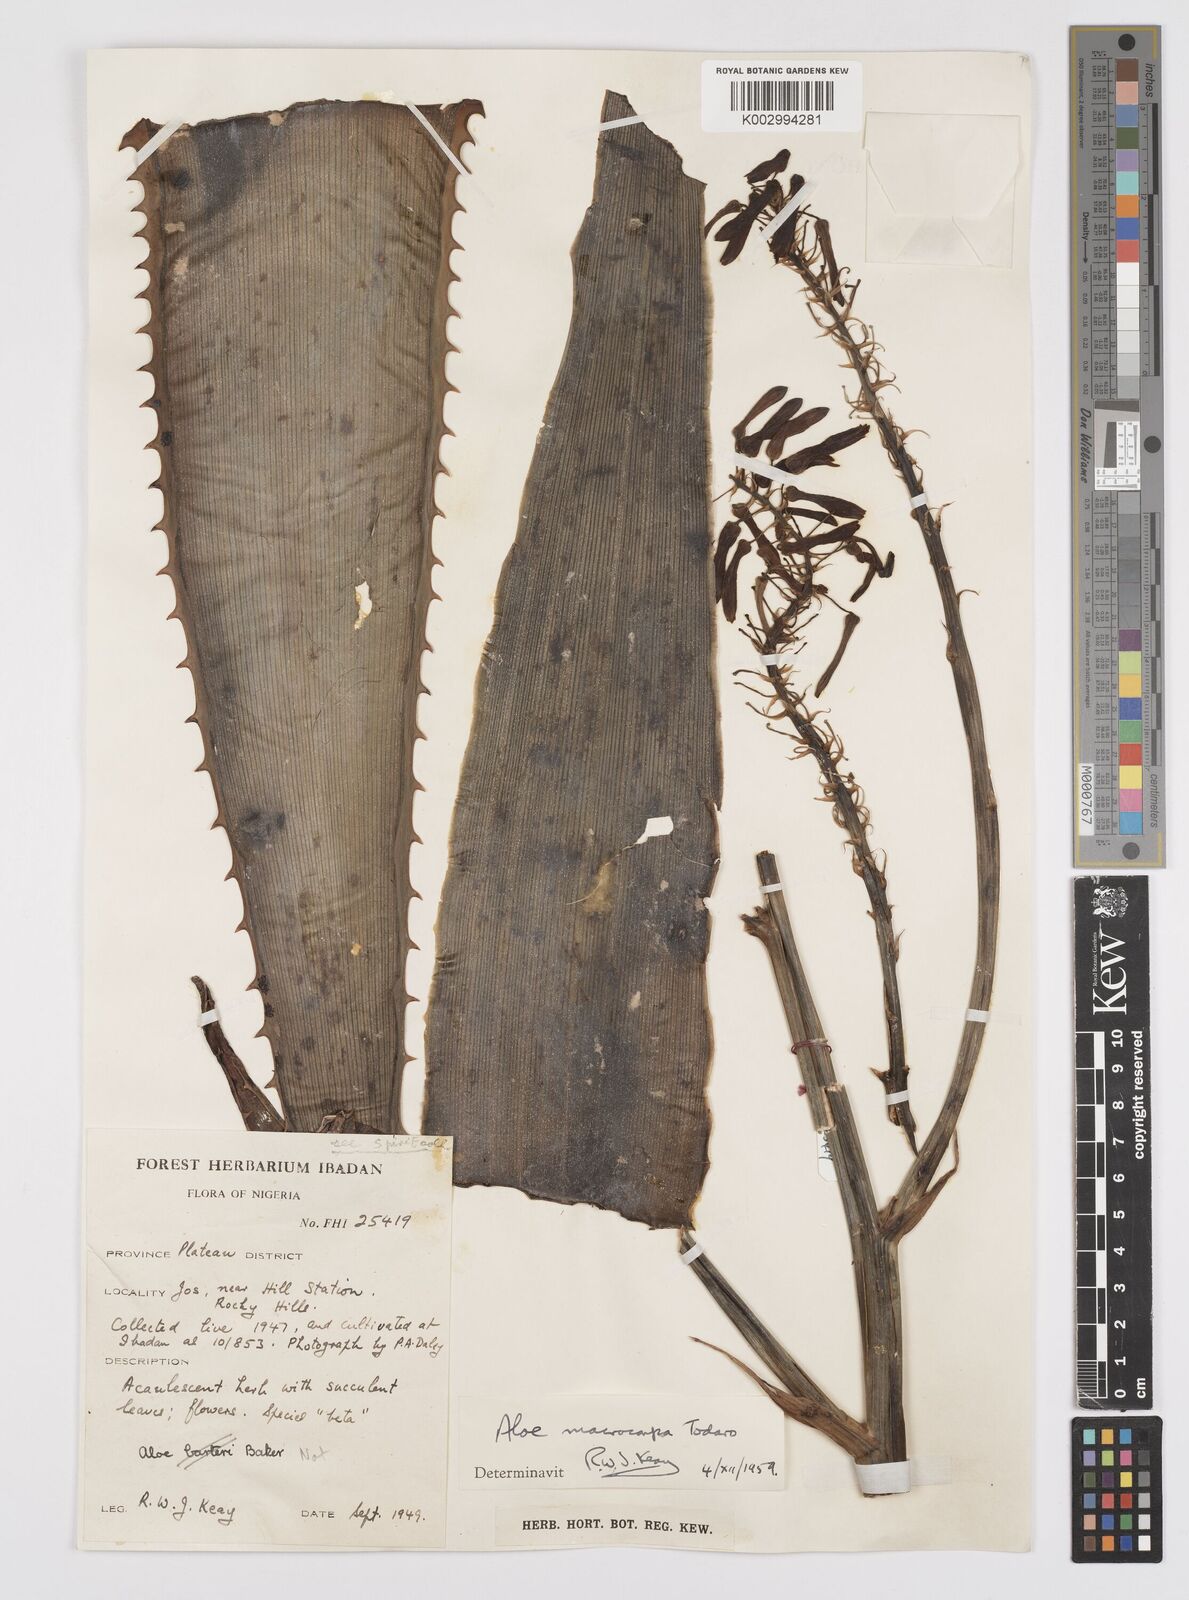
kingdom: Plantae
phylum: Tracheophyta
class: Liliopsida
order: Asparagales
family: Asphodelaceae
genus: Aloe
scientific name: Aloe macrocarpa
